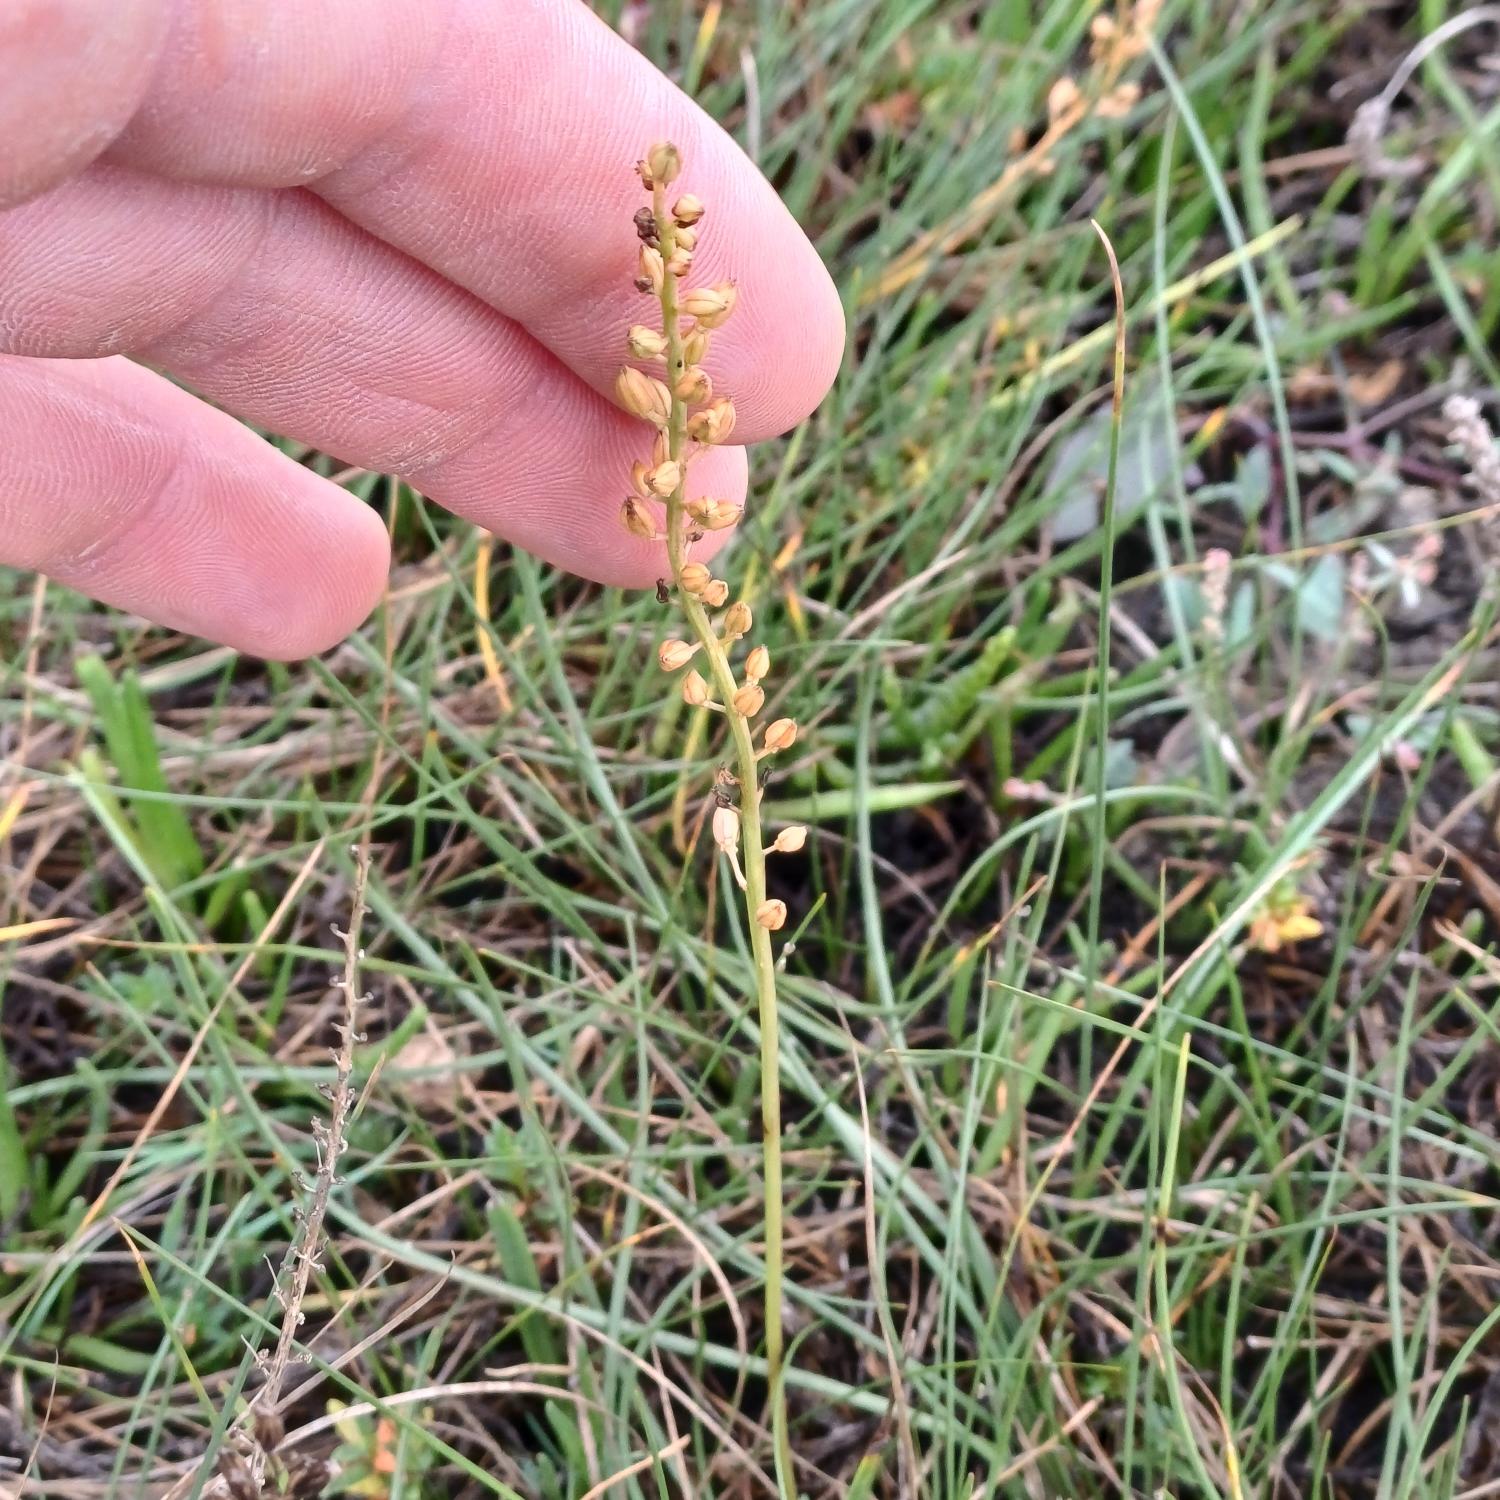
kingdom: Plantae
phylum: Tracheophyta
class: Liliopsida
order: Alismatales
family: Juncaginaceae
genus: Triglochin
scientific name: Triglochin maritima
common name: Strand-trehage
